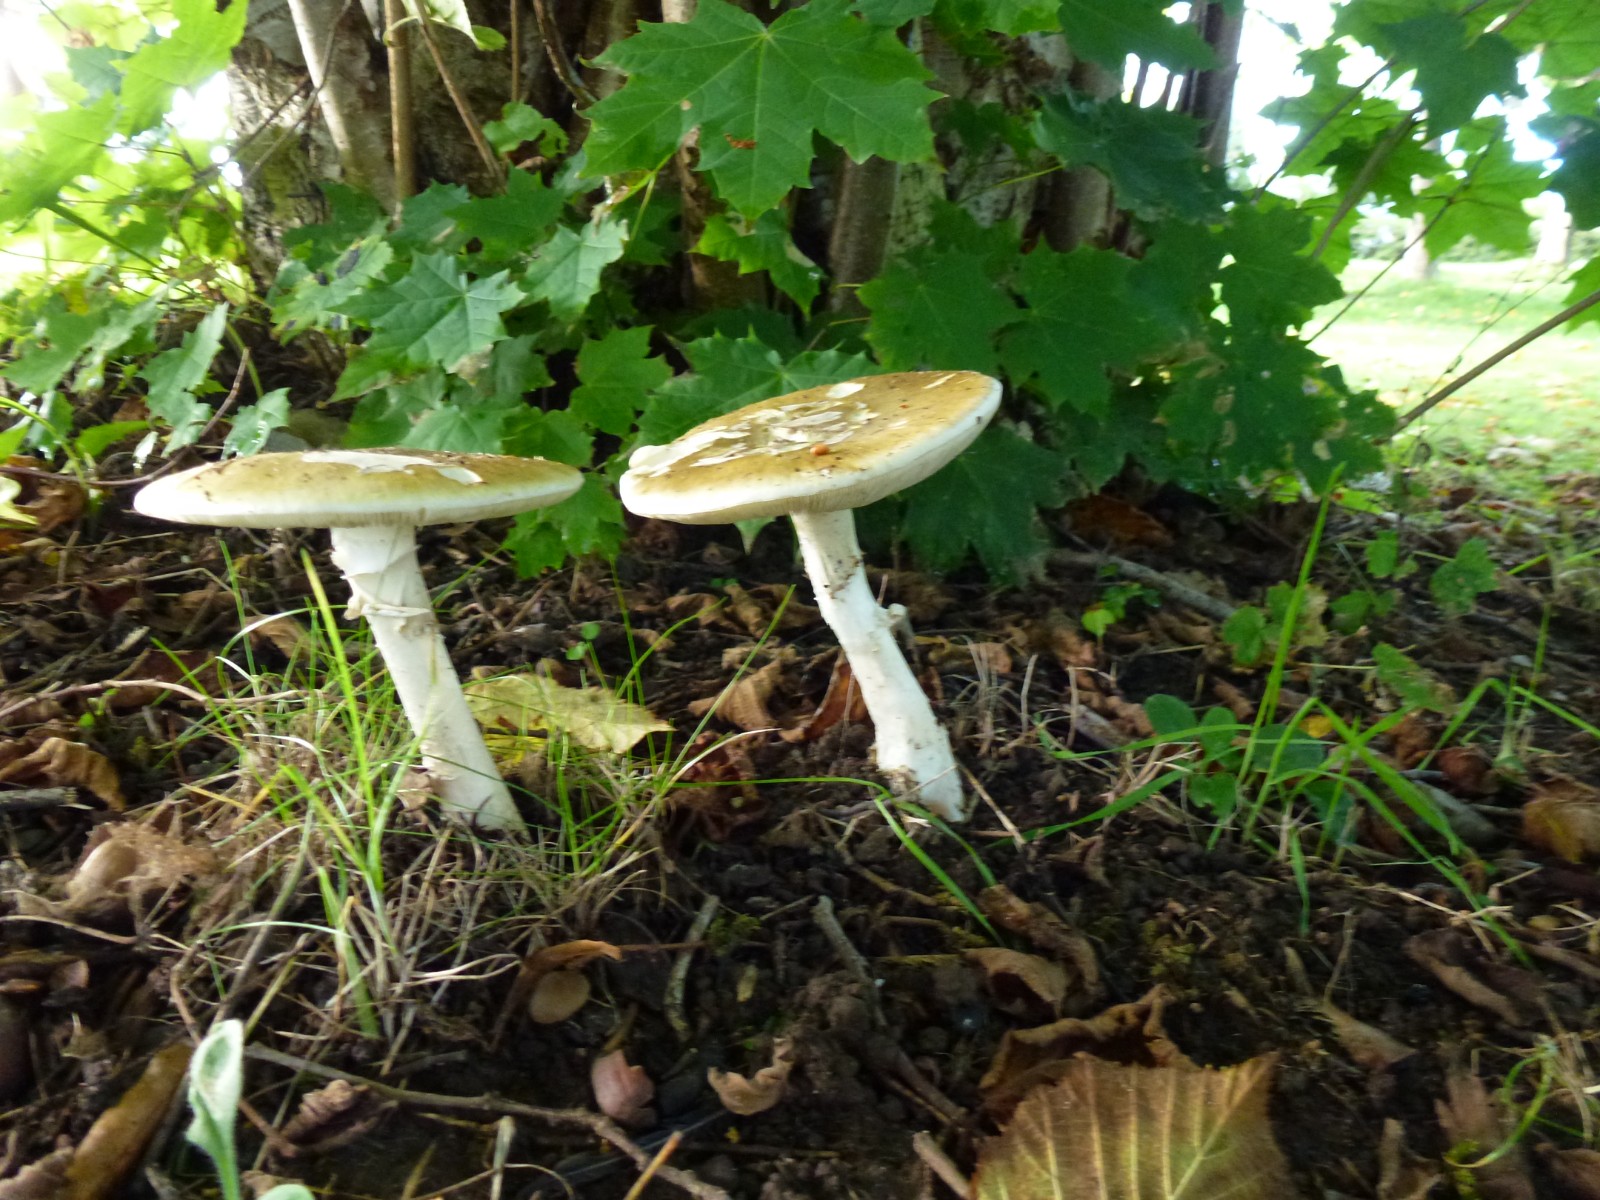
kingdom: Fungi
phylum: Basidiomycota
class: Agaricomycetes
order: Agaricales
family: Amanitaceae
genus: Amanita
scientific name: Amanita phalloides
